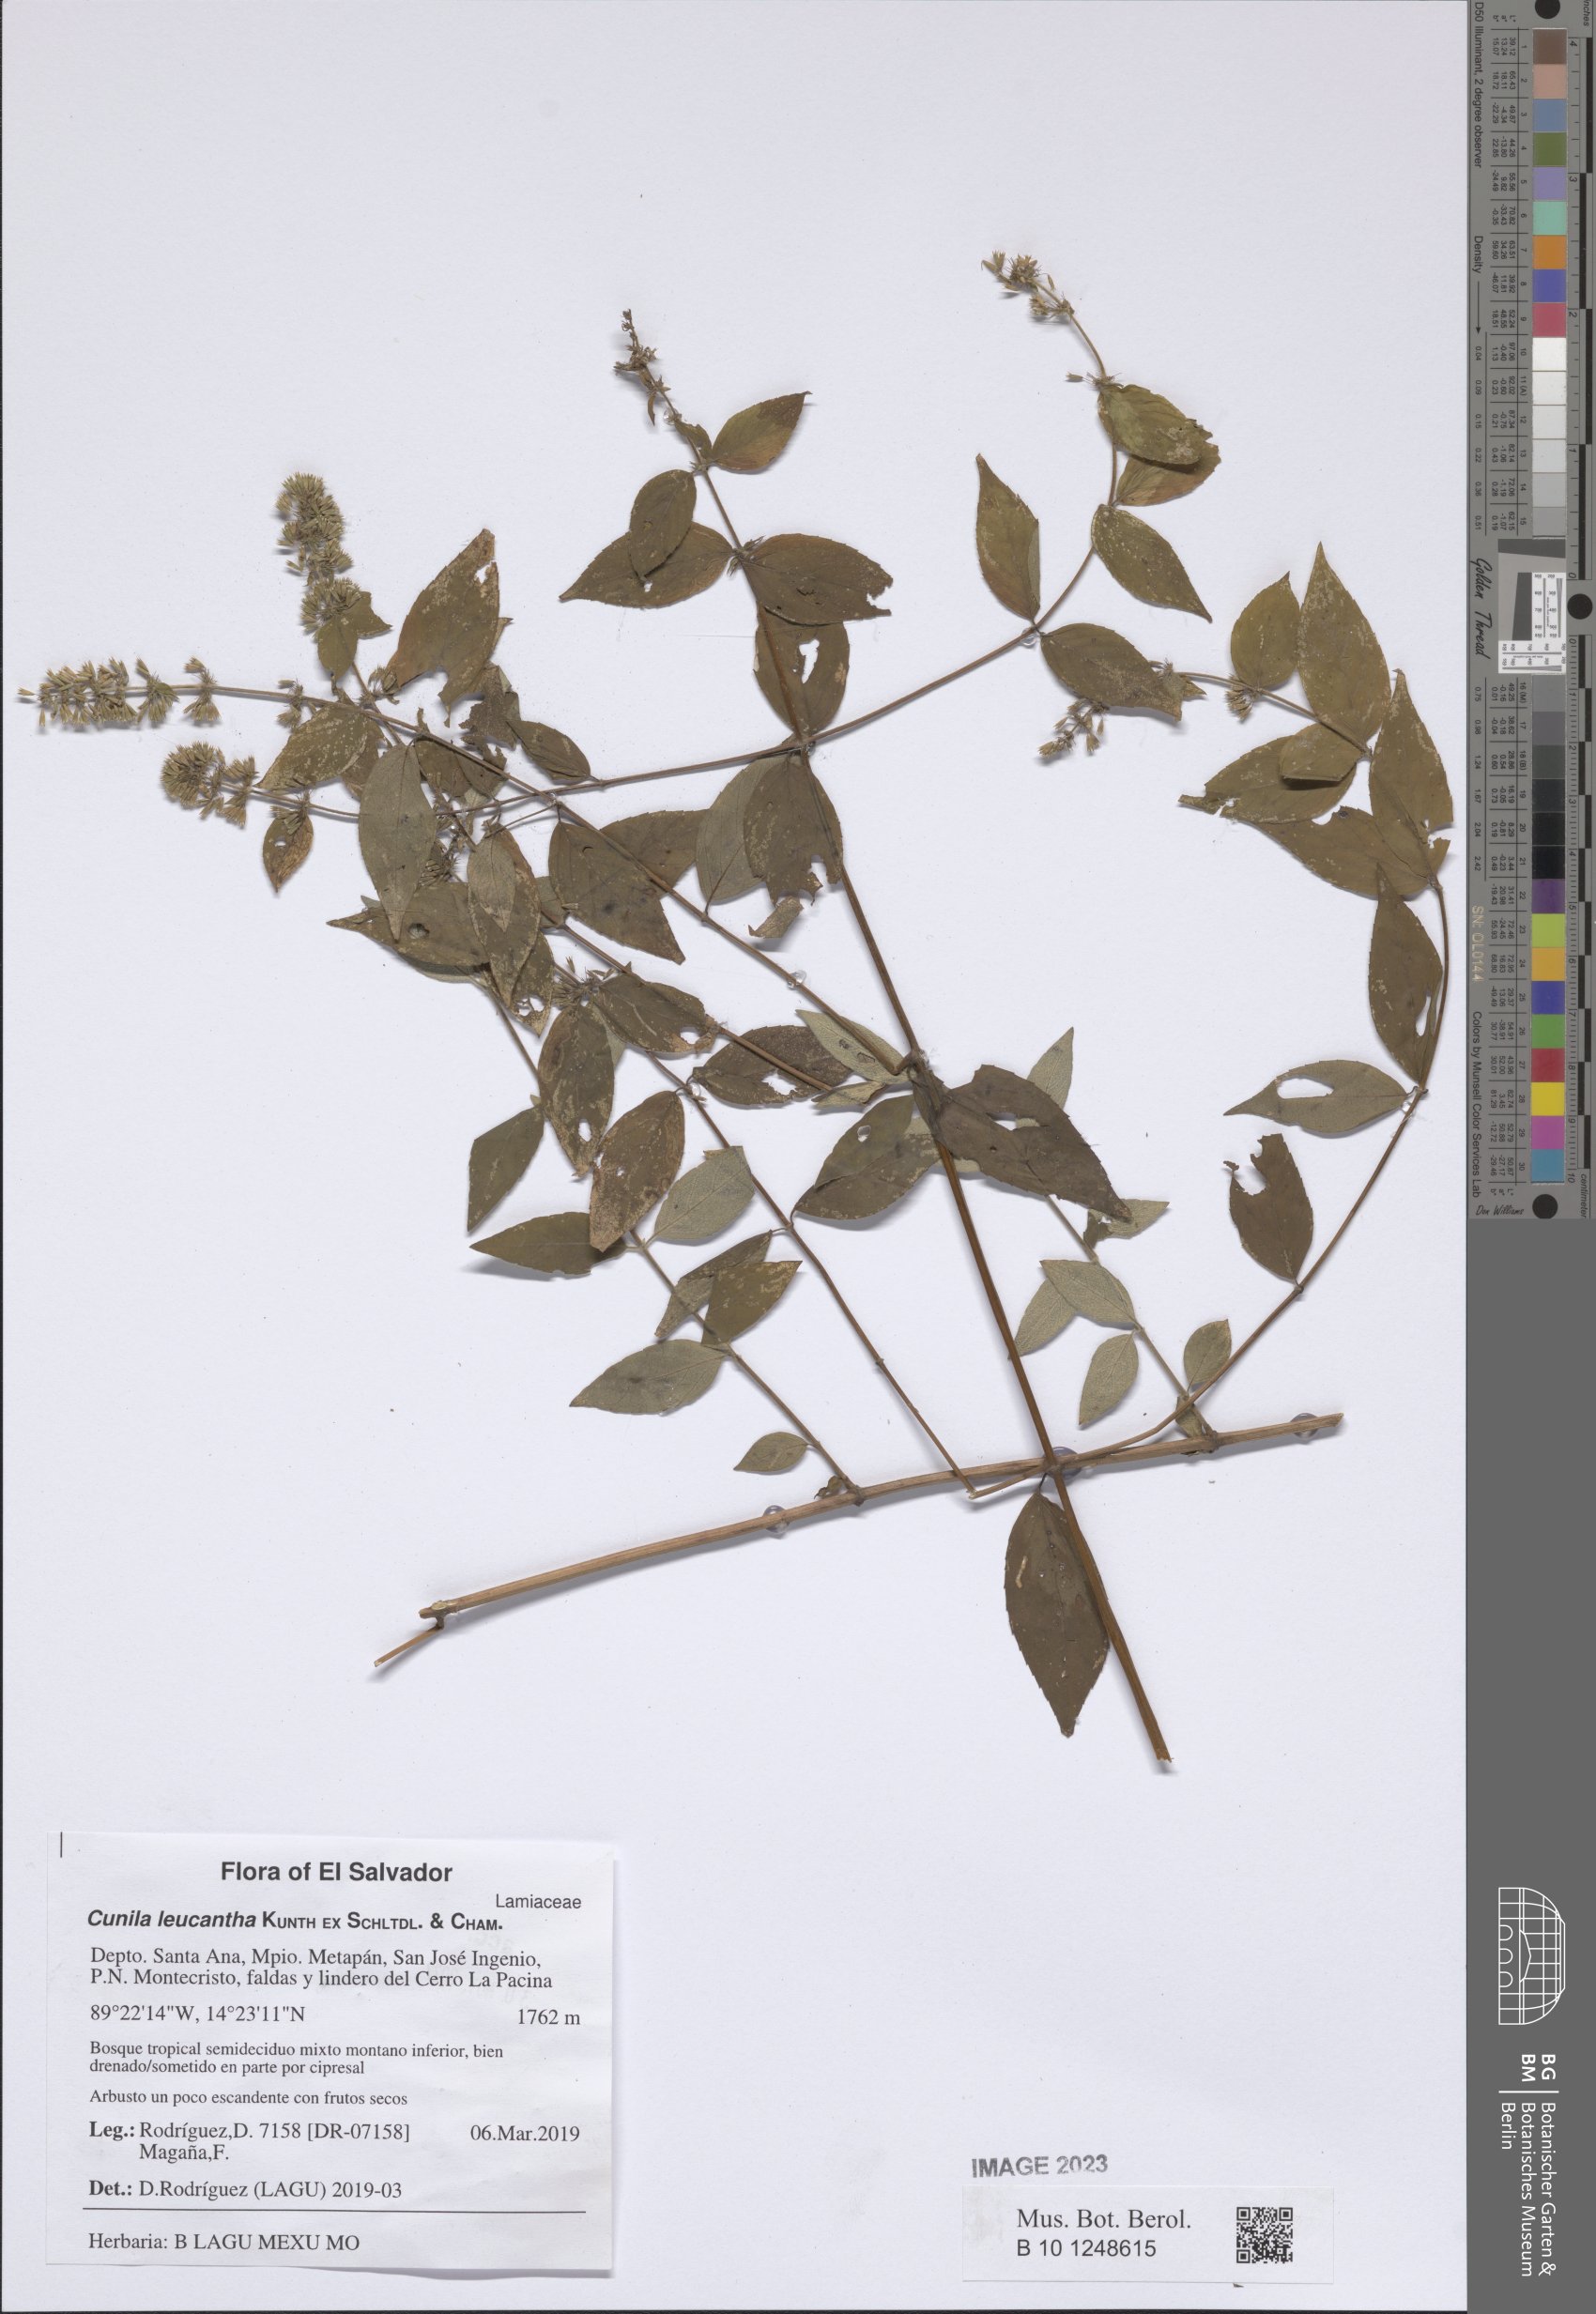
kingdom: Plantae
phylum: Tracheophyta
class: Magnoliopsida
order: Lamiales
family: Lamiaceae
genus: Cunila
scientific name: Cunila leucantha
